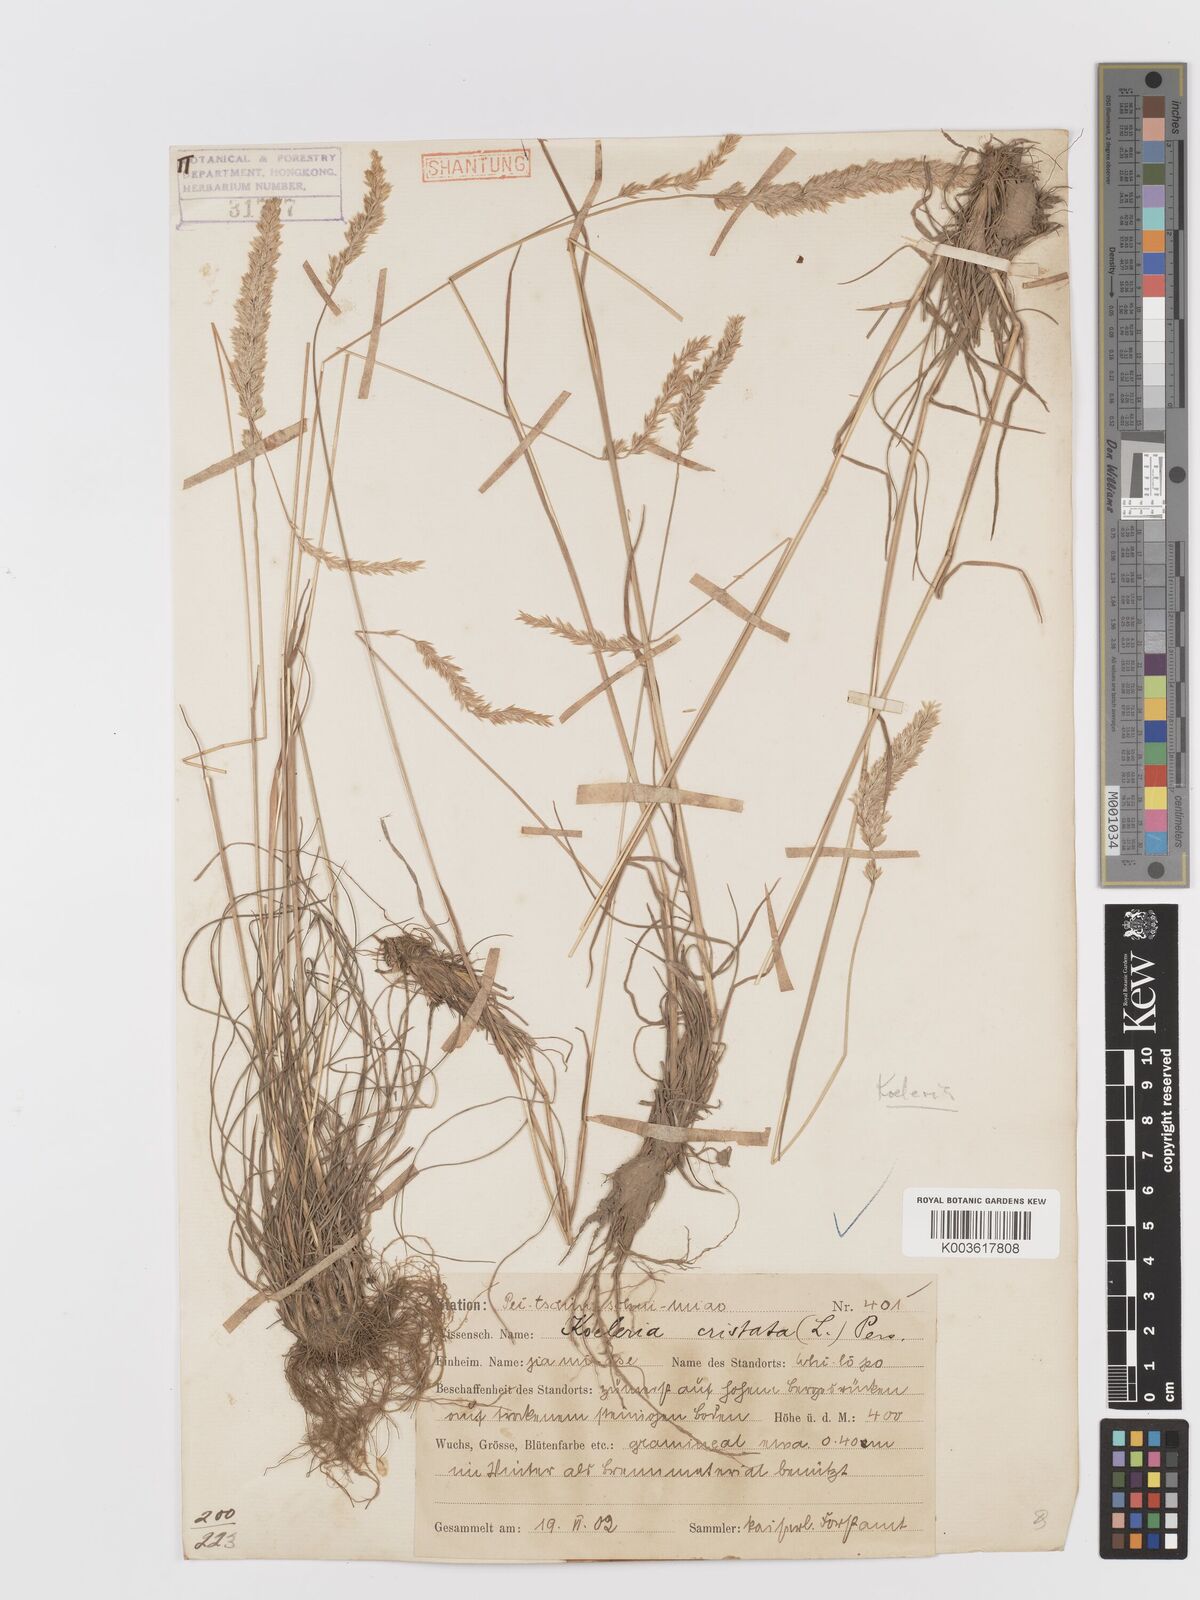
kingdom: Plantae
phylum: Tracheophyta
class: Liliopsida
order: Poales
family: Poaceae
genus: Koeleria
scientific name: Koeleria macrantha
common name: Crested hair-grass
